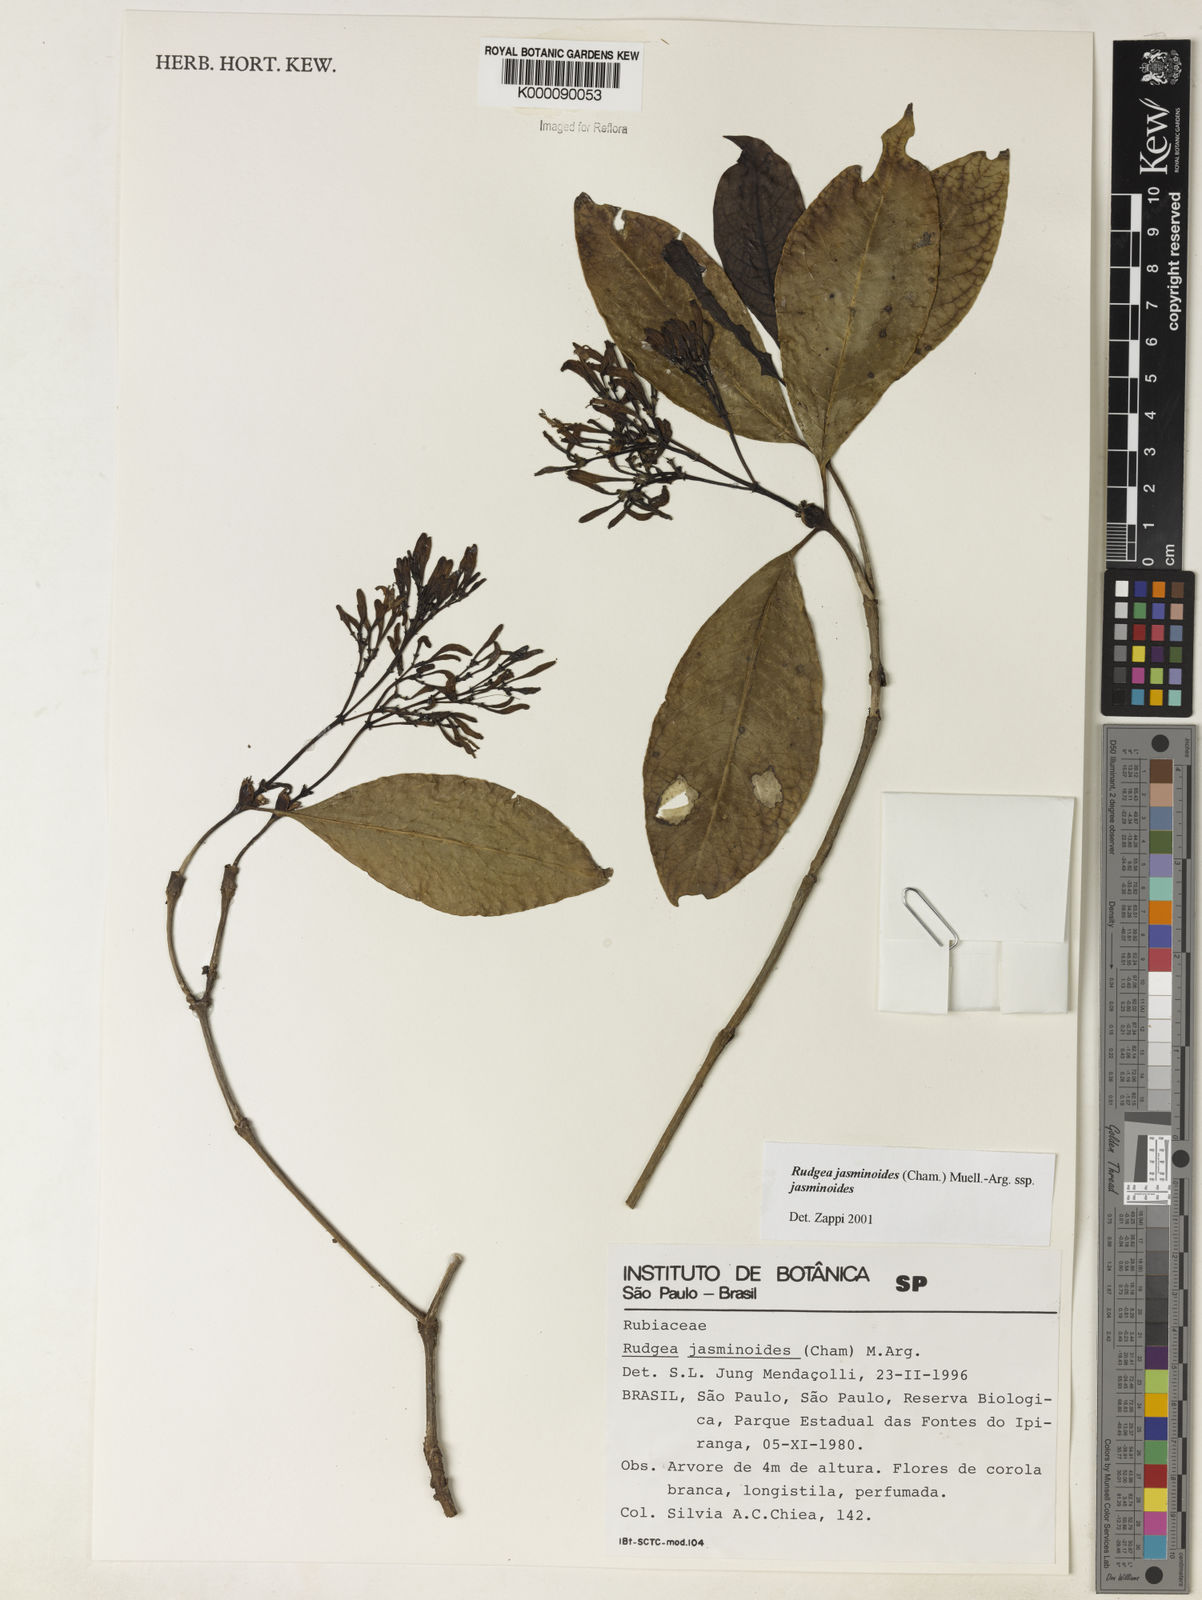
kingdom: Plantae
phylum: Tracheophyta
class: Magnoliopsida
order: Gentianales
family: Rubiaceae
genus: Rudgea
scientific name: Rudgea jasminoides
